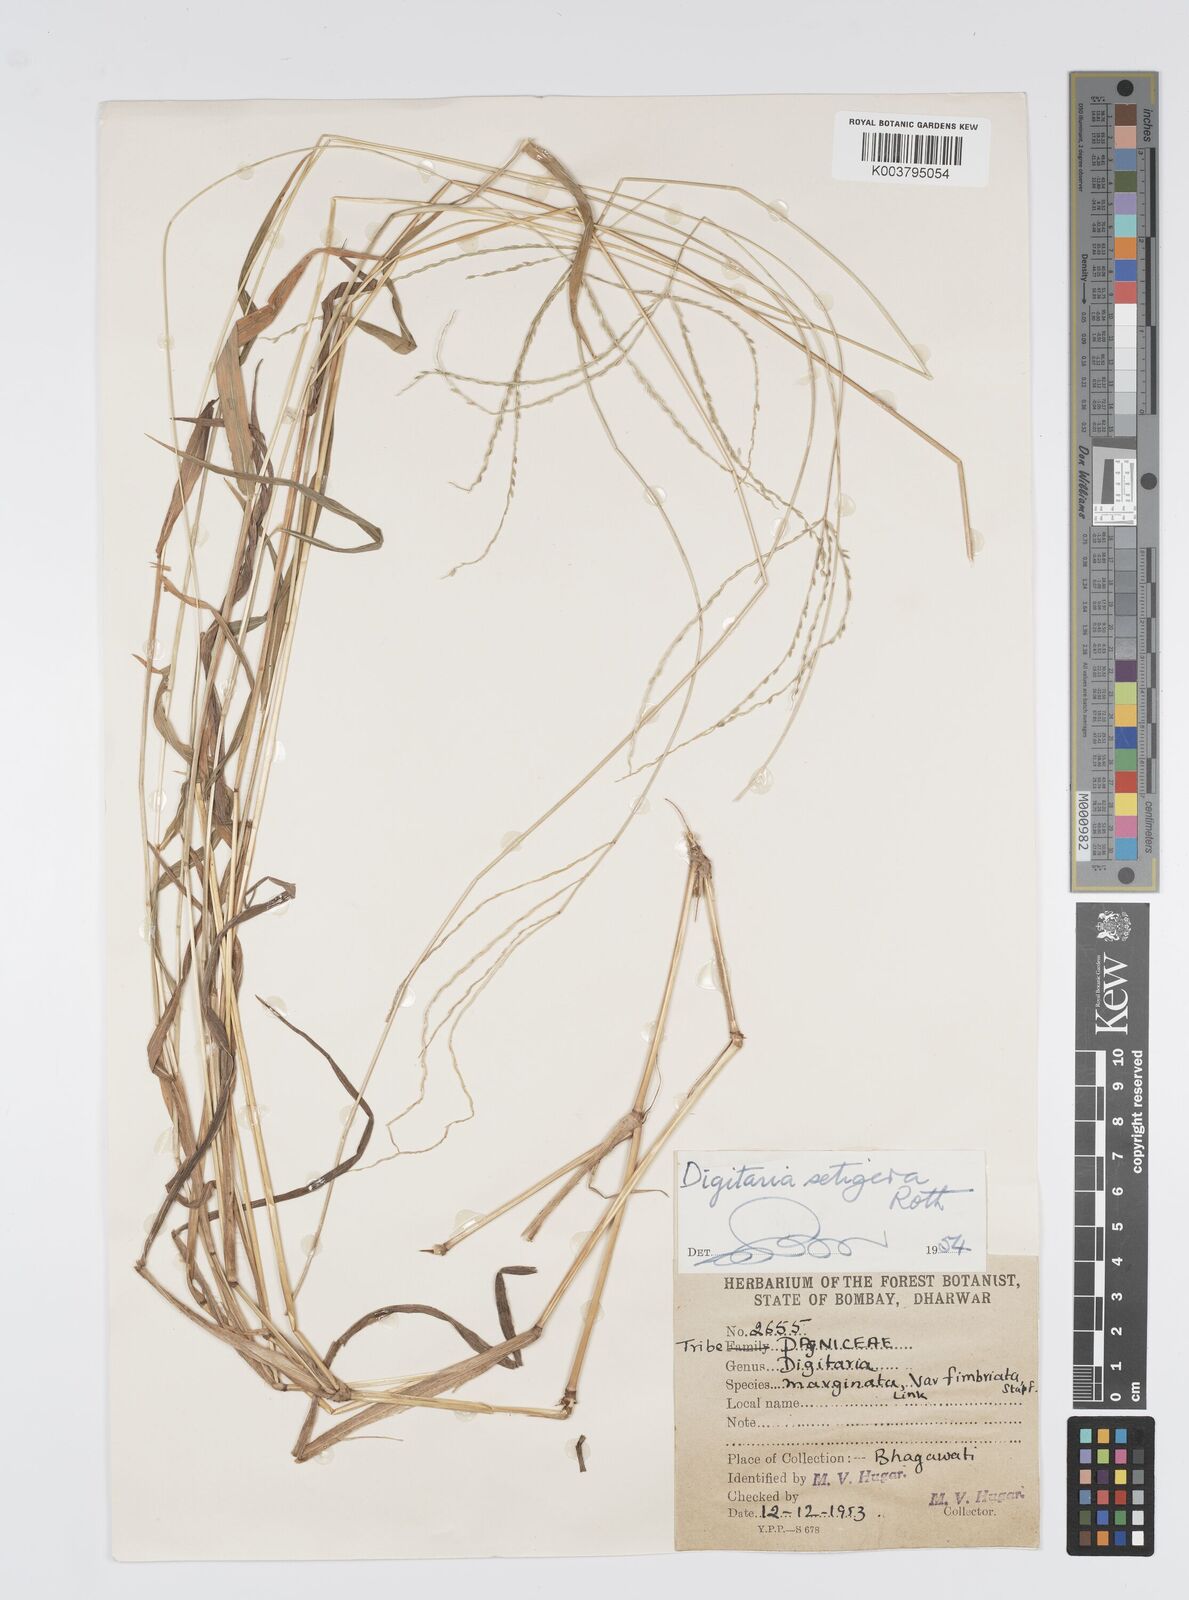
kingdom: Plantae
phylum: Tracheophyta
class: Liliopsida
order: Poales
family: Poaceae
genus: Digitaria
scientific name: Digitaria setigera
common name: East indian crabgrass
